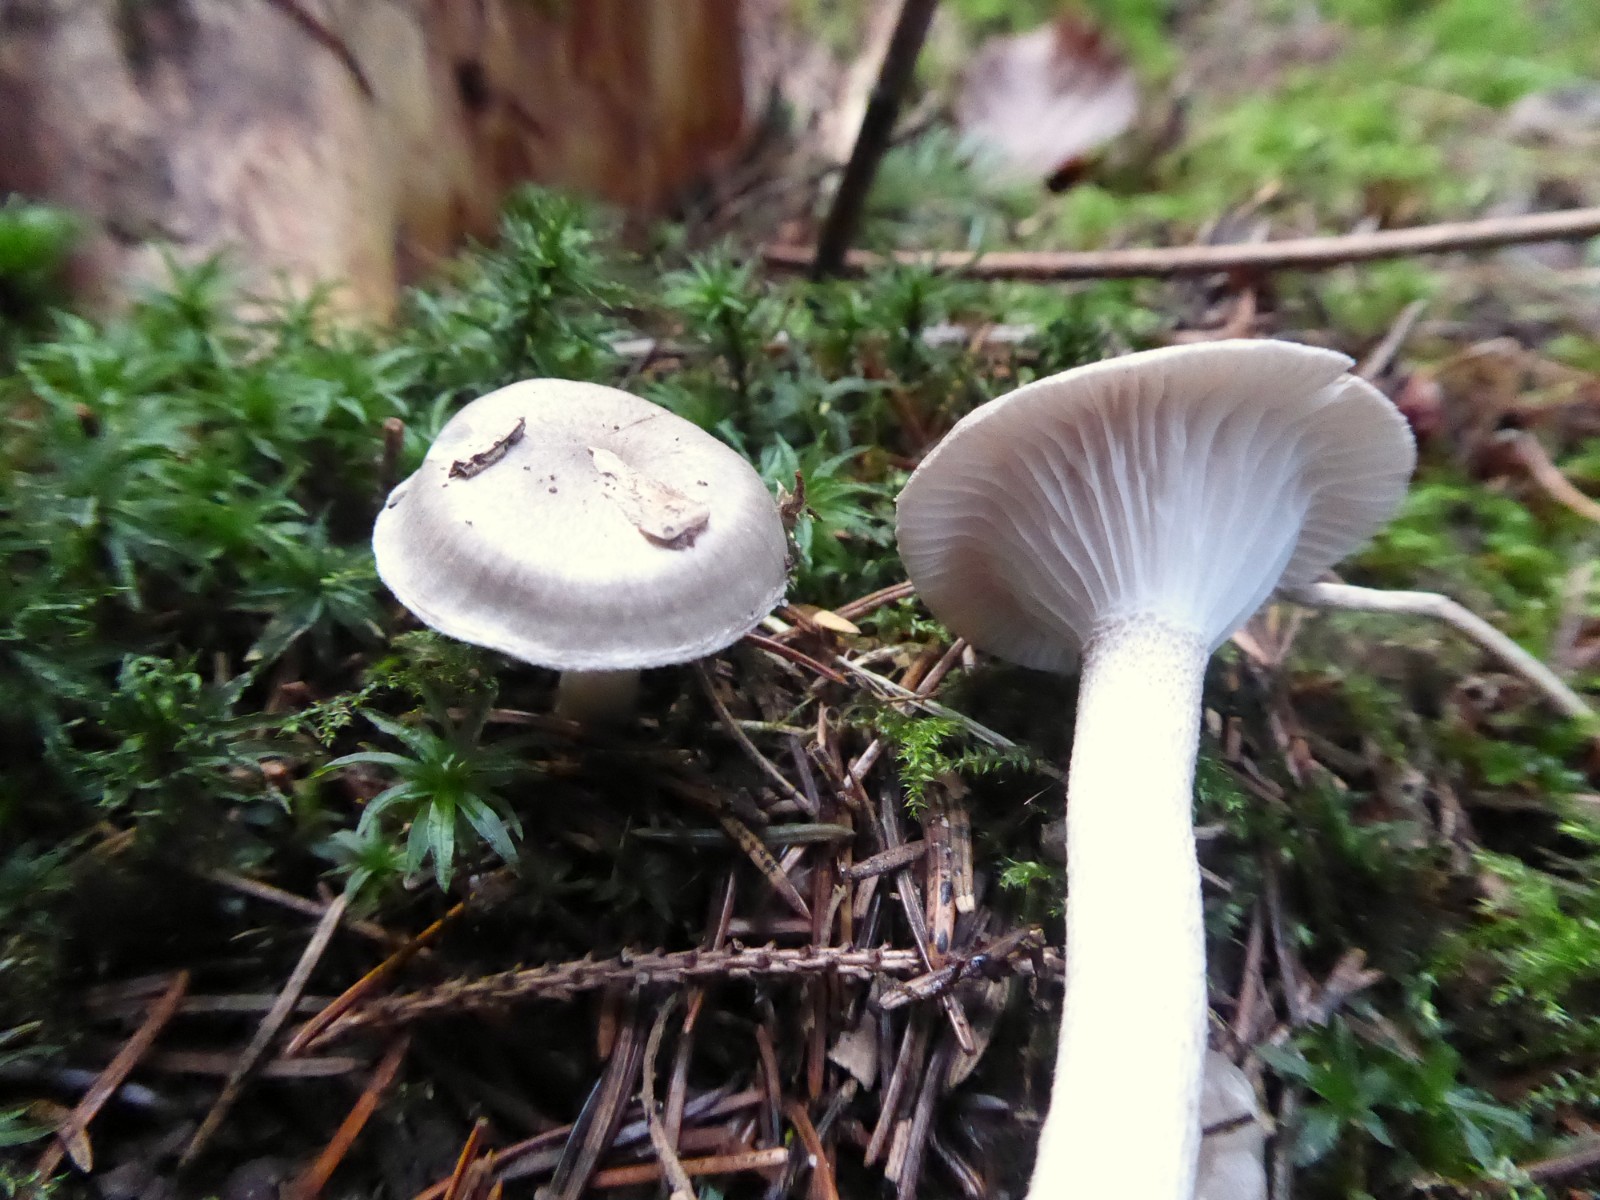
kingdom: Fungi
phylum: Basidiomycota
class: Agaricomycetes
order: Agaricales
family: Hygrophoraceae
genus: Hygrophorus
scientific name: Hygrophorus agathosmus
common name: vellugtende sneglehat
